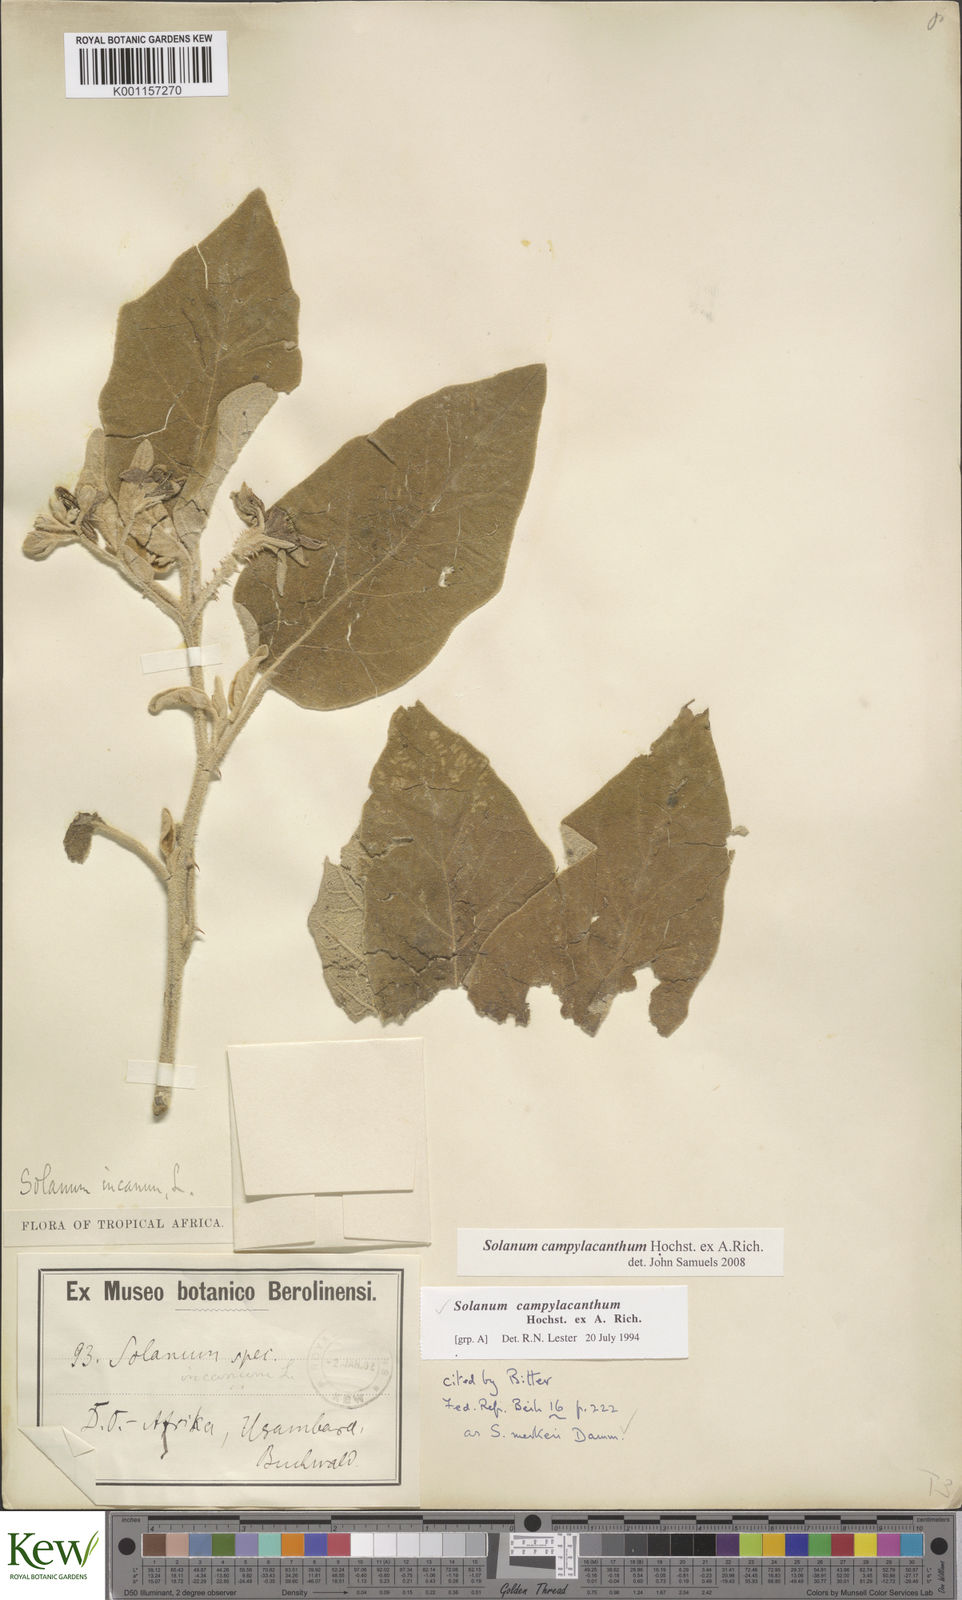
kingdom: Plantae
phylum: Tracheophyta
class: Magnoliopsida
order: Solanales
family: Solanaceae
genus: Solanum
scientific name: Solanum campylacanthum
